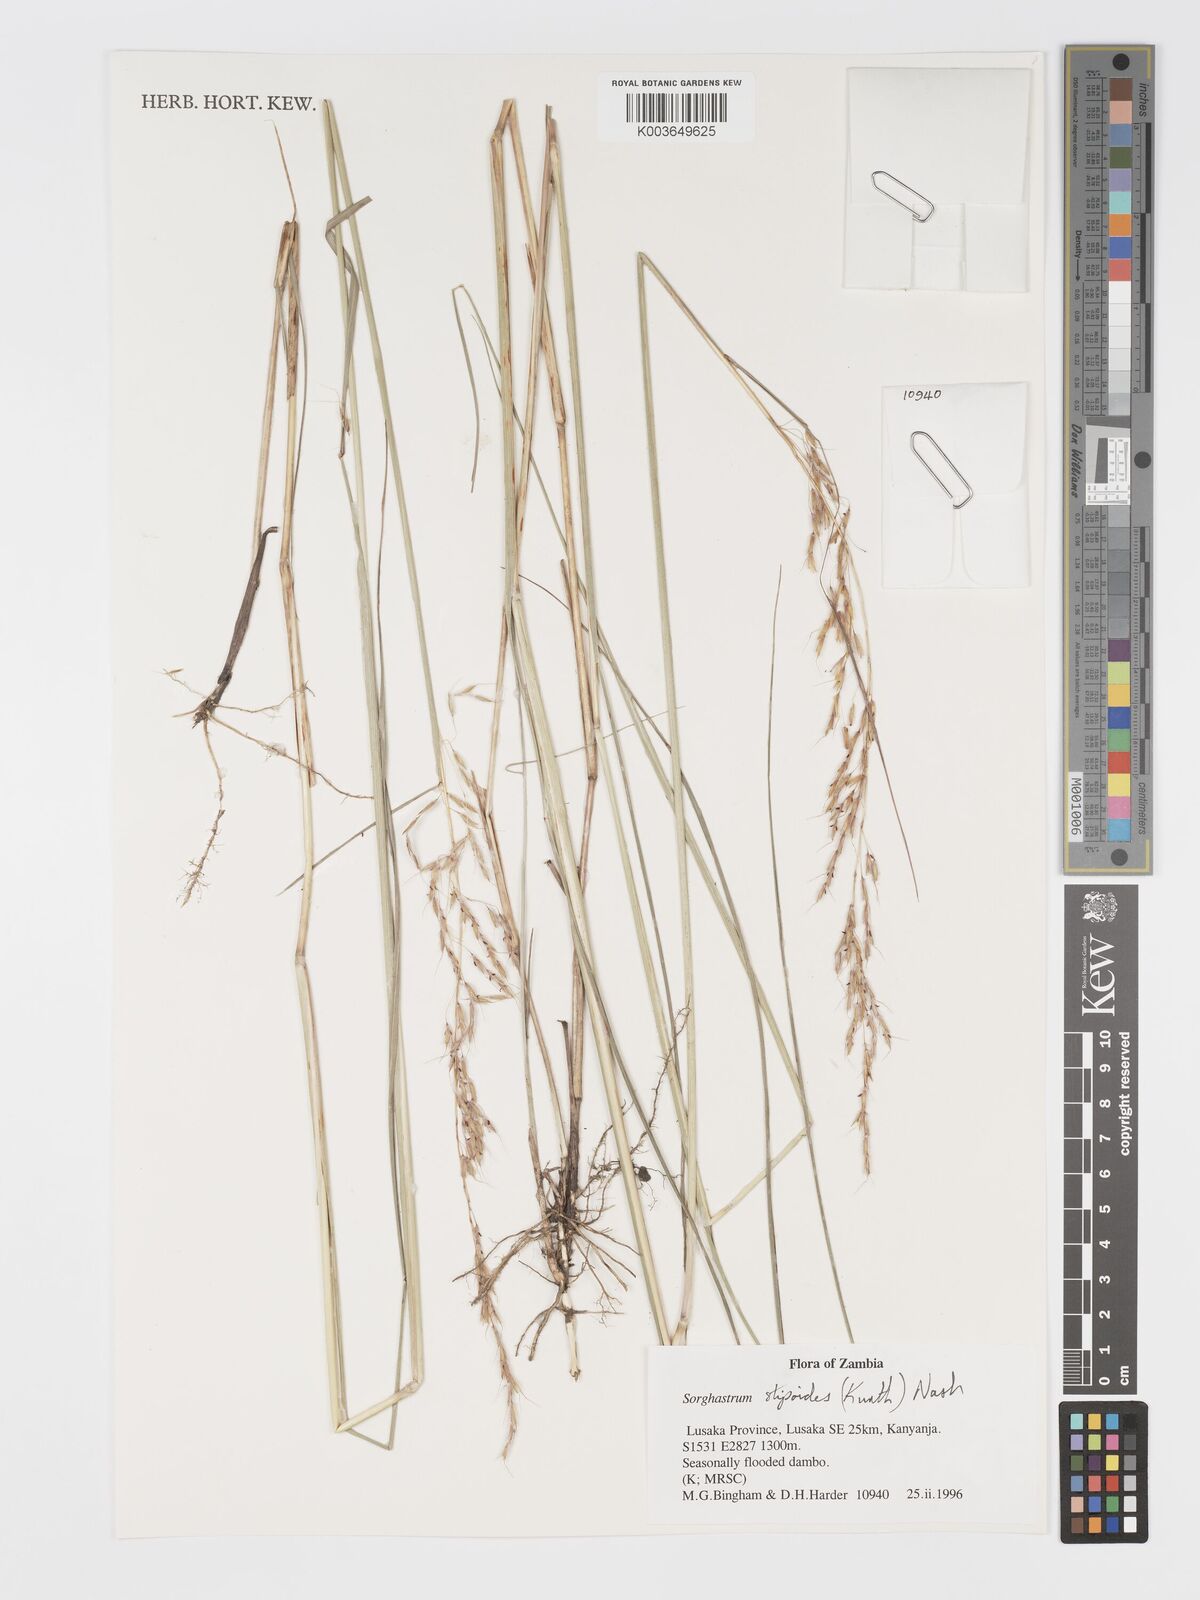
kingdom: Plantae
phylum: Tracheophyta
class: Liliopsida
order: Poales
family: Poaceae
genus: Sorghastrum
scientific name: Sorghastrum stipoides
